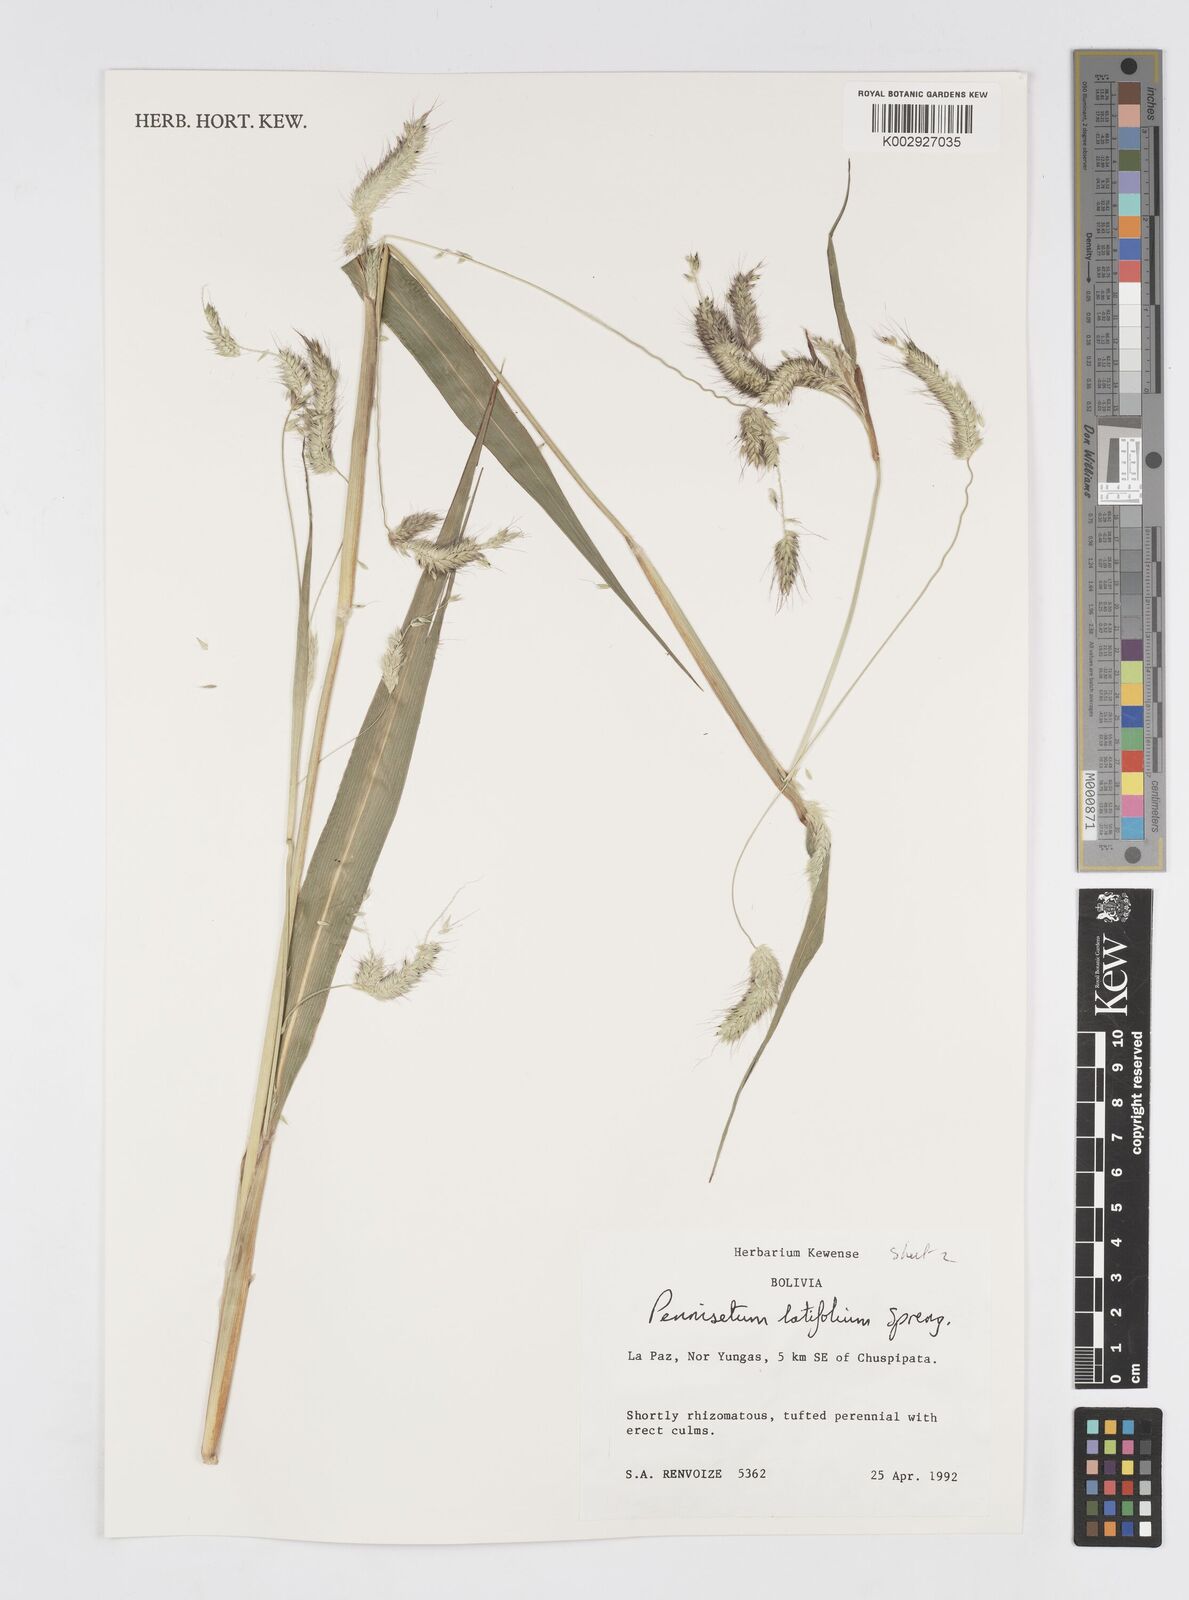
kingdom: Plantae
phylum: Tracheophyta
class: Liliopsida
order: Poales
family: Poaceae
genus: Cenchrus
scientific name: Cenchrus latifolius
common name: Sandbur
